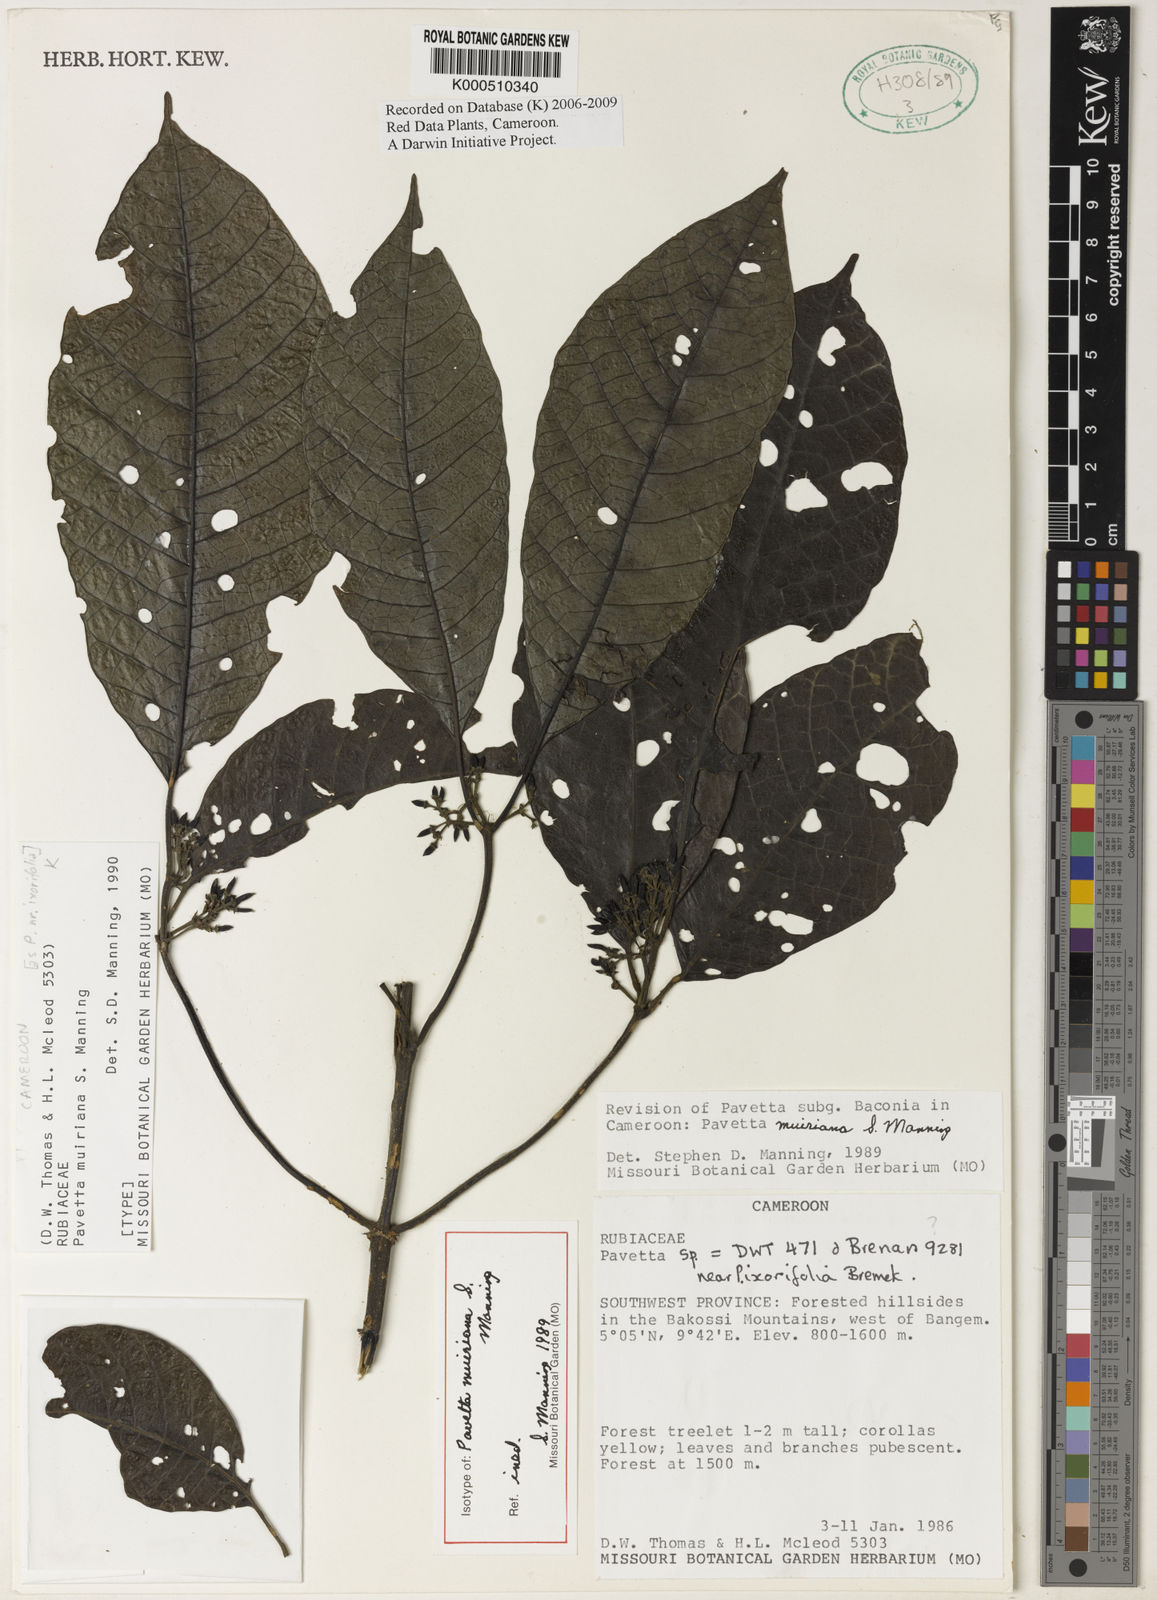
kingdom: Plantae
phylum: Tracheophyta
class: Magnoliopsida
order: Gentianales
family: Rubiaceae
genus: Pavetta
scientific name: Pavetta muiriana
